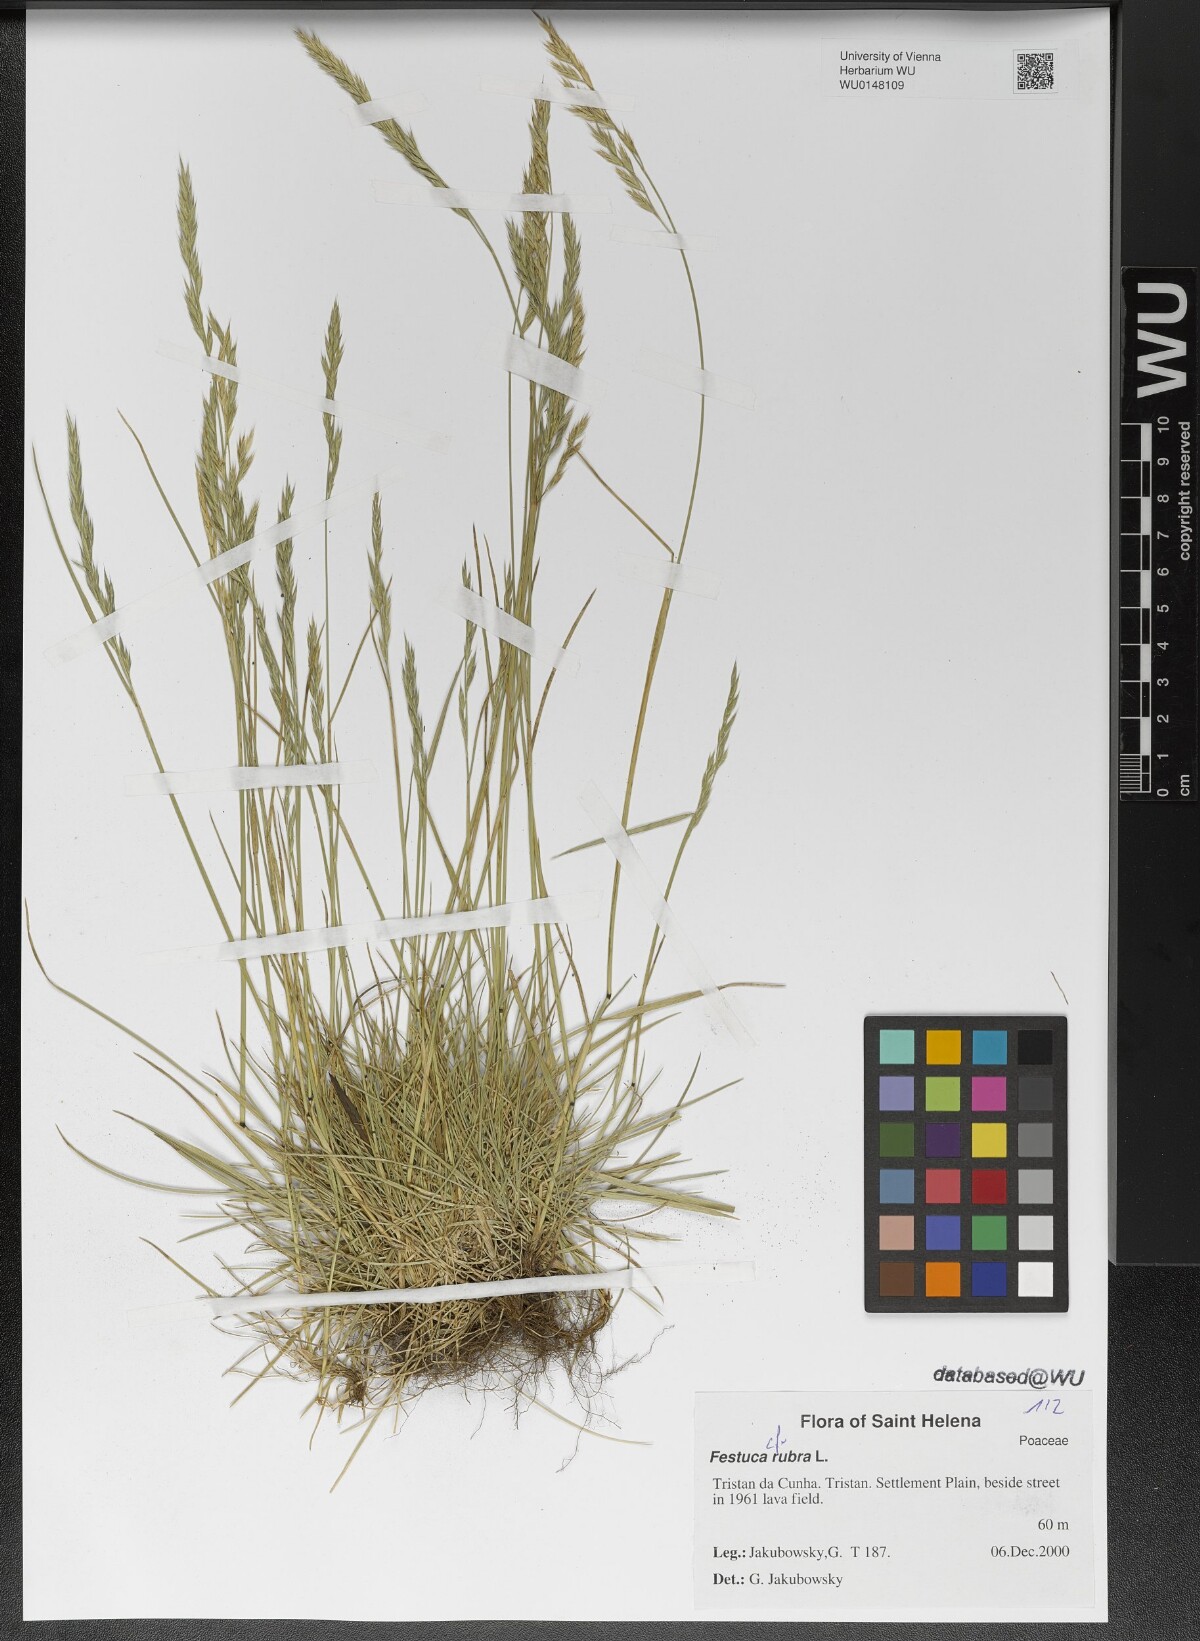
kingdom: Plantae
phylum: Tracheophyta
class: Liliopsida
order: Poales
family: Poaceae
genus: Festuca
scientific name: Festuca rubra
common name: Red fescue
